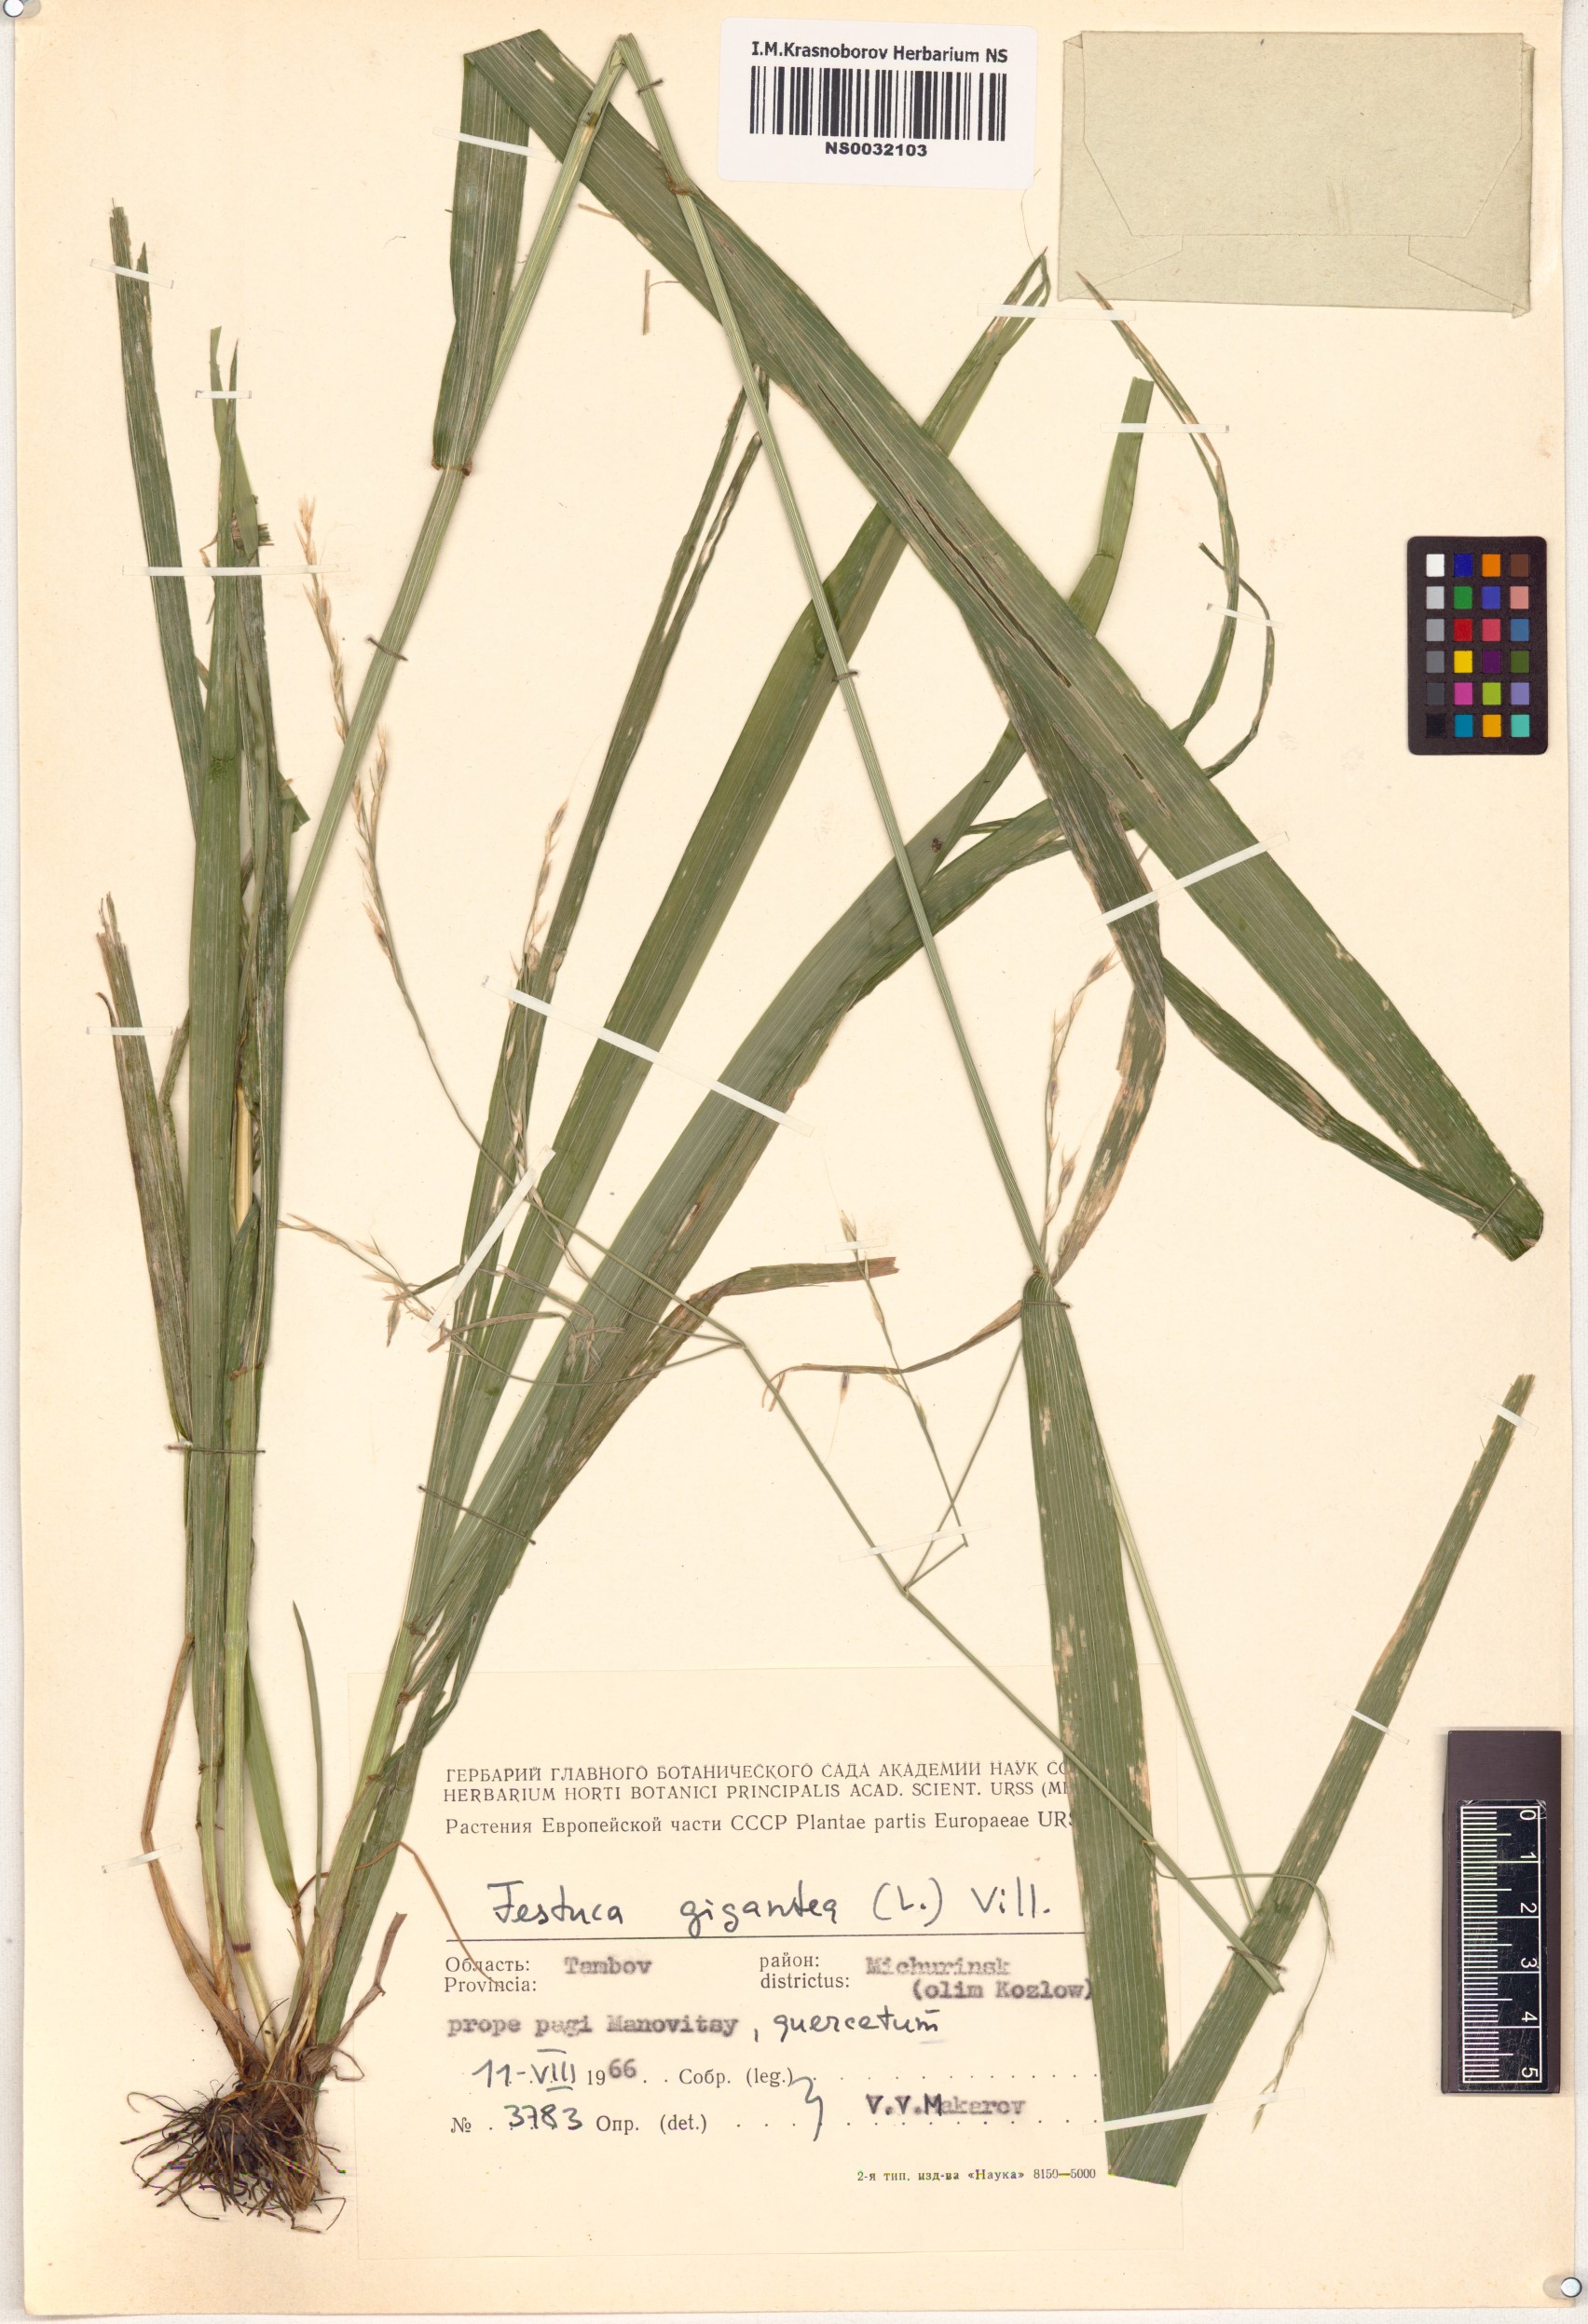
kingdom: Plantae
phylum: Tracheophyta
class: Liliopsida
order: Poales
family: Poaceae
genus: Lolium
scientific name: Lolium giganteum
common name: Giant fescue
